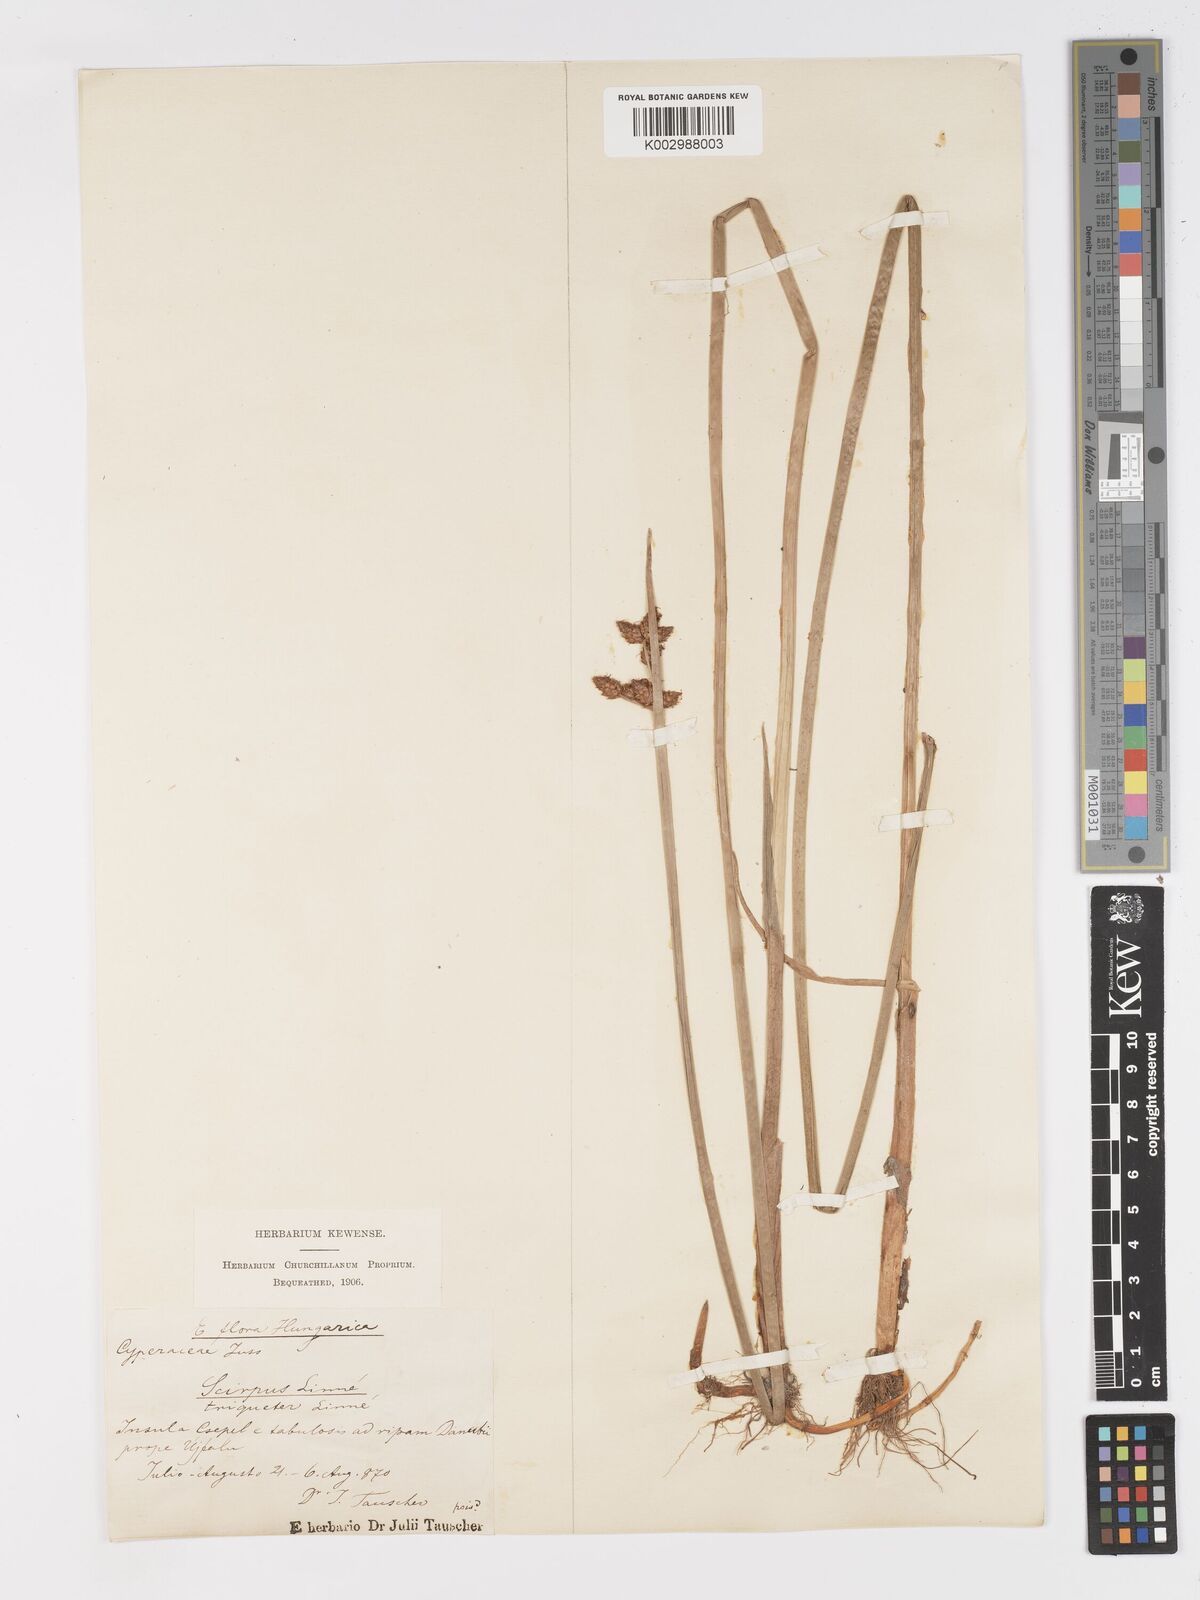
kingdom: Plantae
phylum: Tracheophyta
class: Liliopsida
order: Poales
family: Cyperaceae
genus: Schoenoplectus
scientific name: Schoenoplectus triqueter
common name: Triangular club-rush
